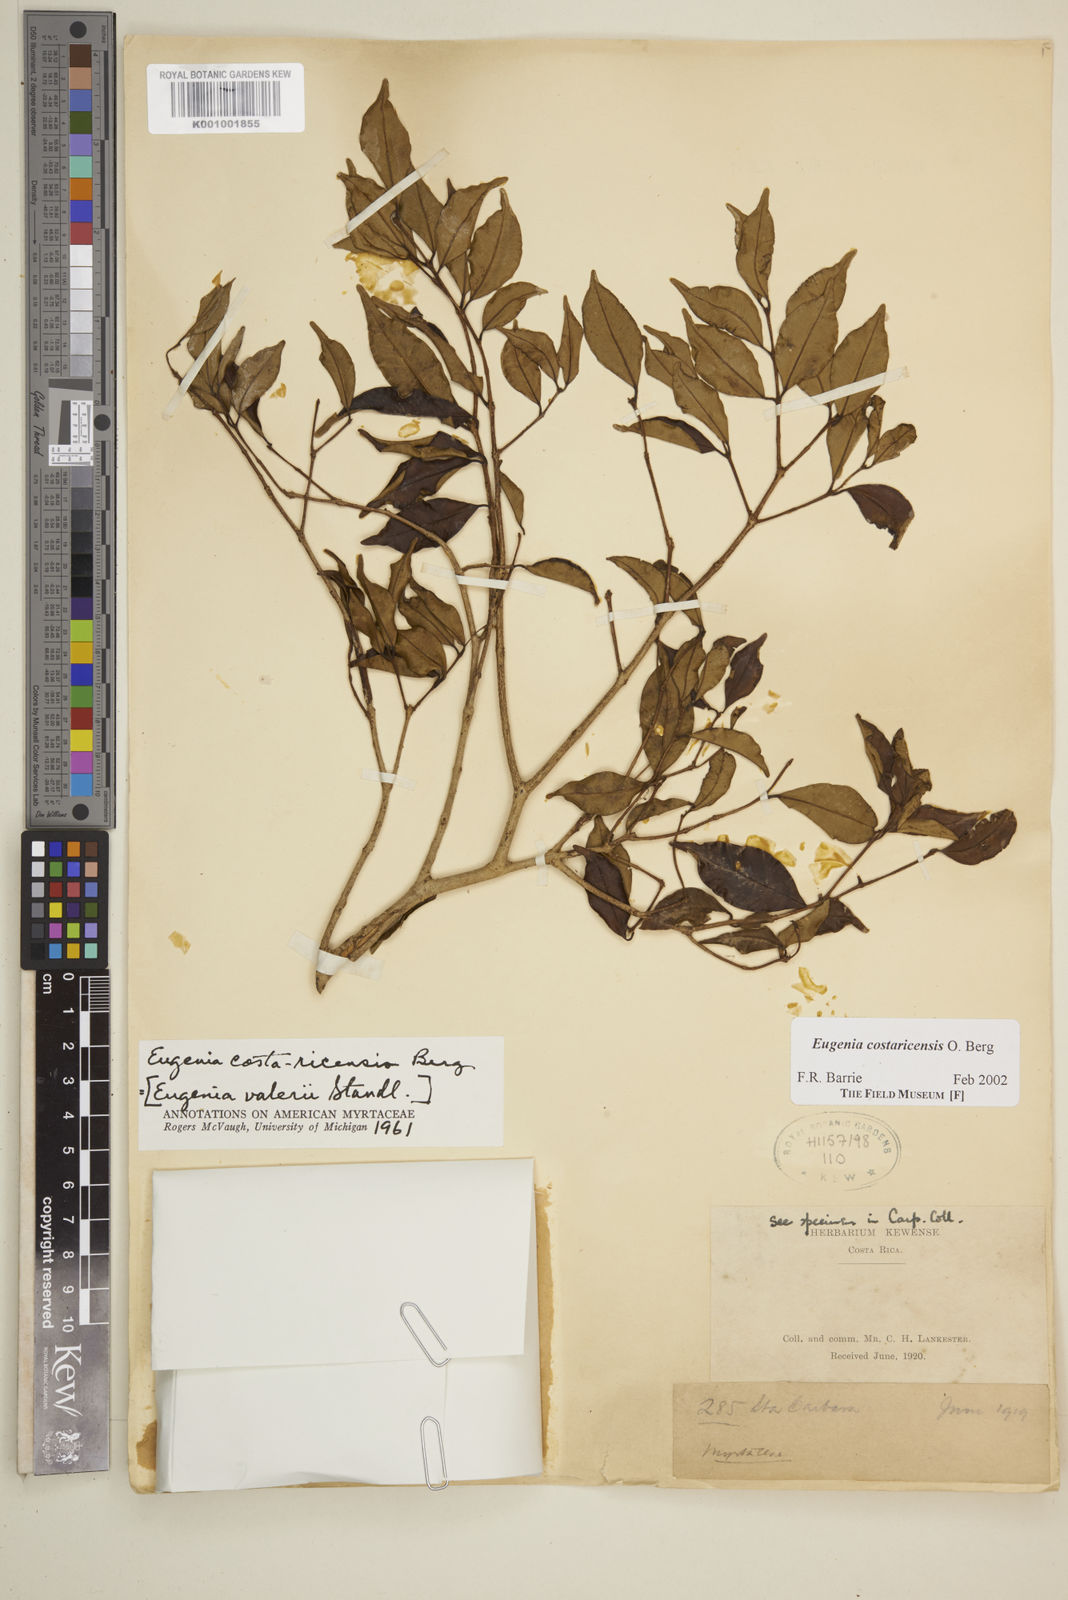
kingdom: Plantae
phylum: Tracheophyta
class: Magnoliopsida
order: Myrtales
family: Myrtaceae
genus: Eugenia
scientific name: Eugenia costaricensis
